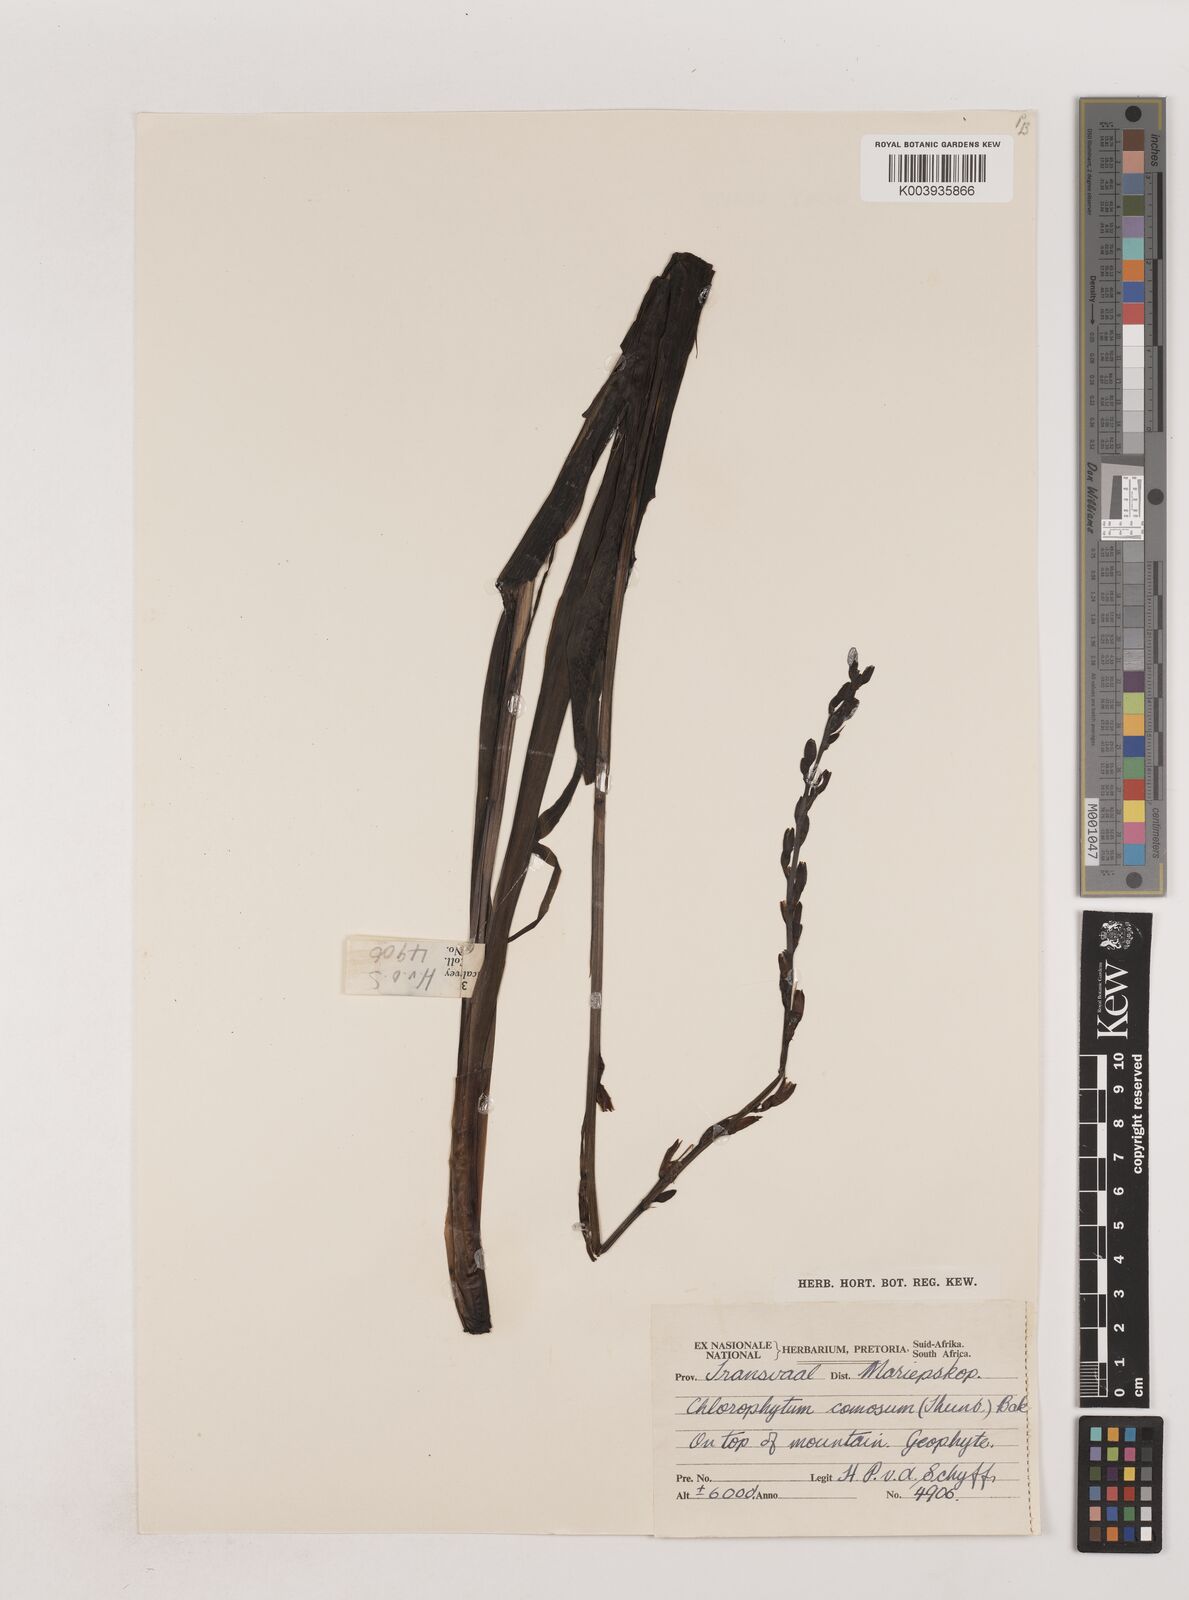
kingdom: Plantae
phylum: Tracheophyta
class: Liliopsida
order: Asparagales
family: Asparagaceae
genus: Chlorophytum
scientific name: Chlorophytum comosum
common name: Spider plant
